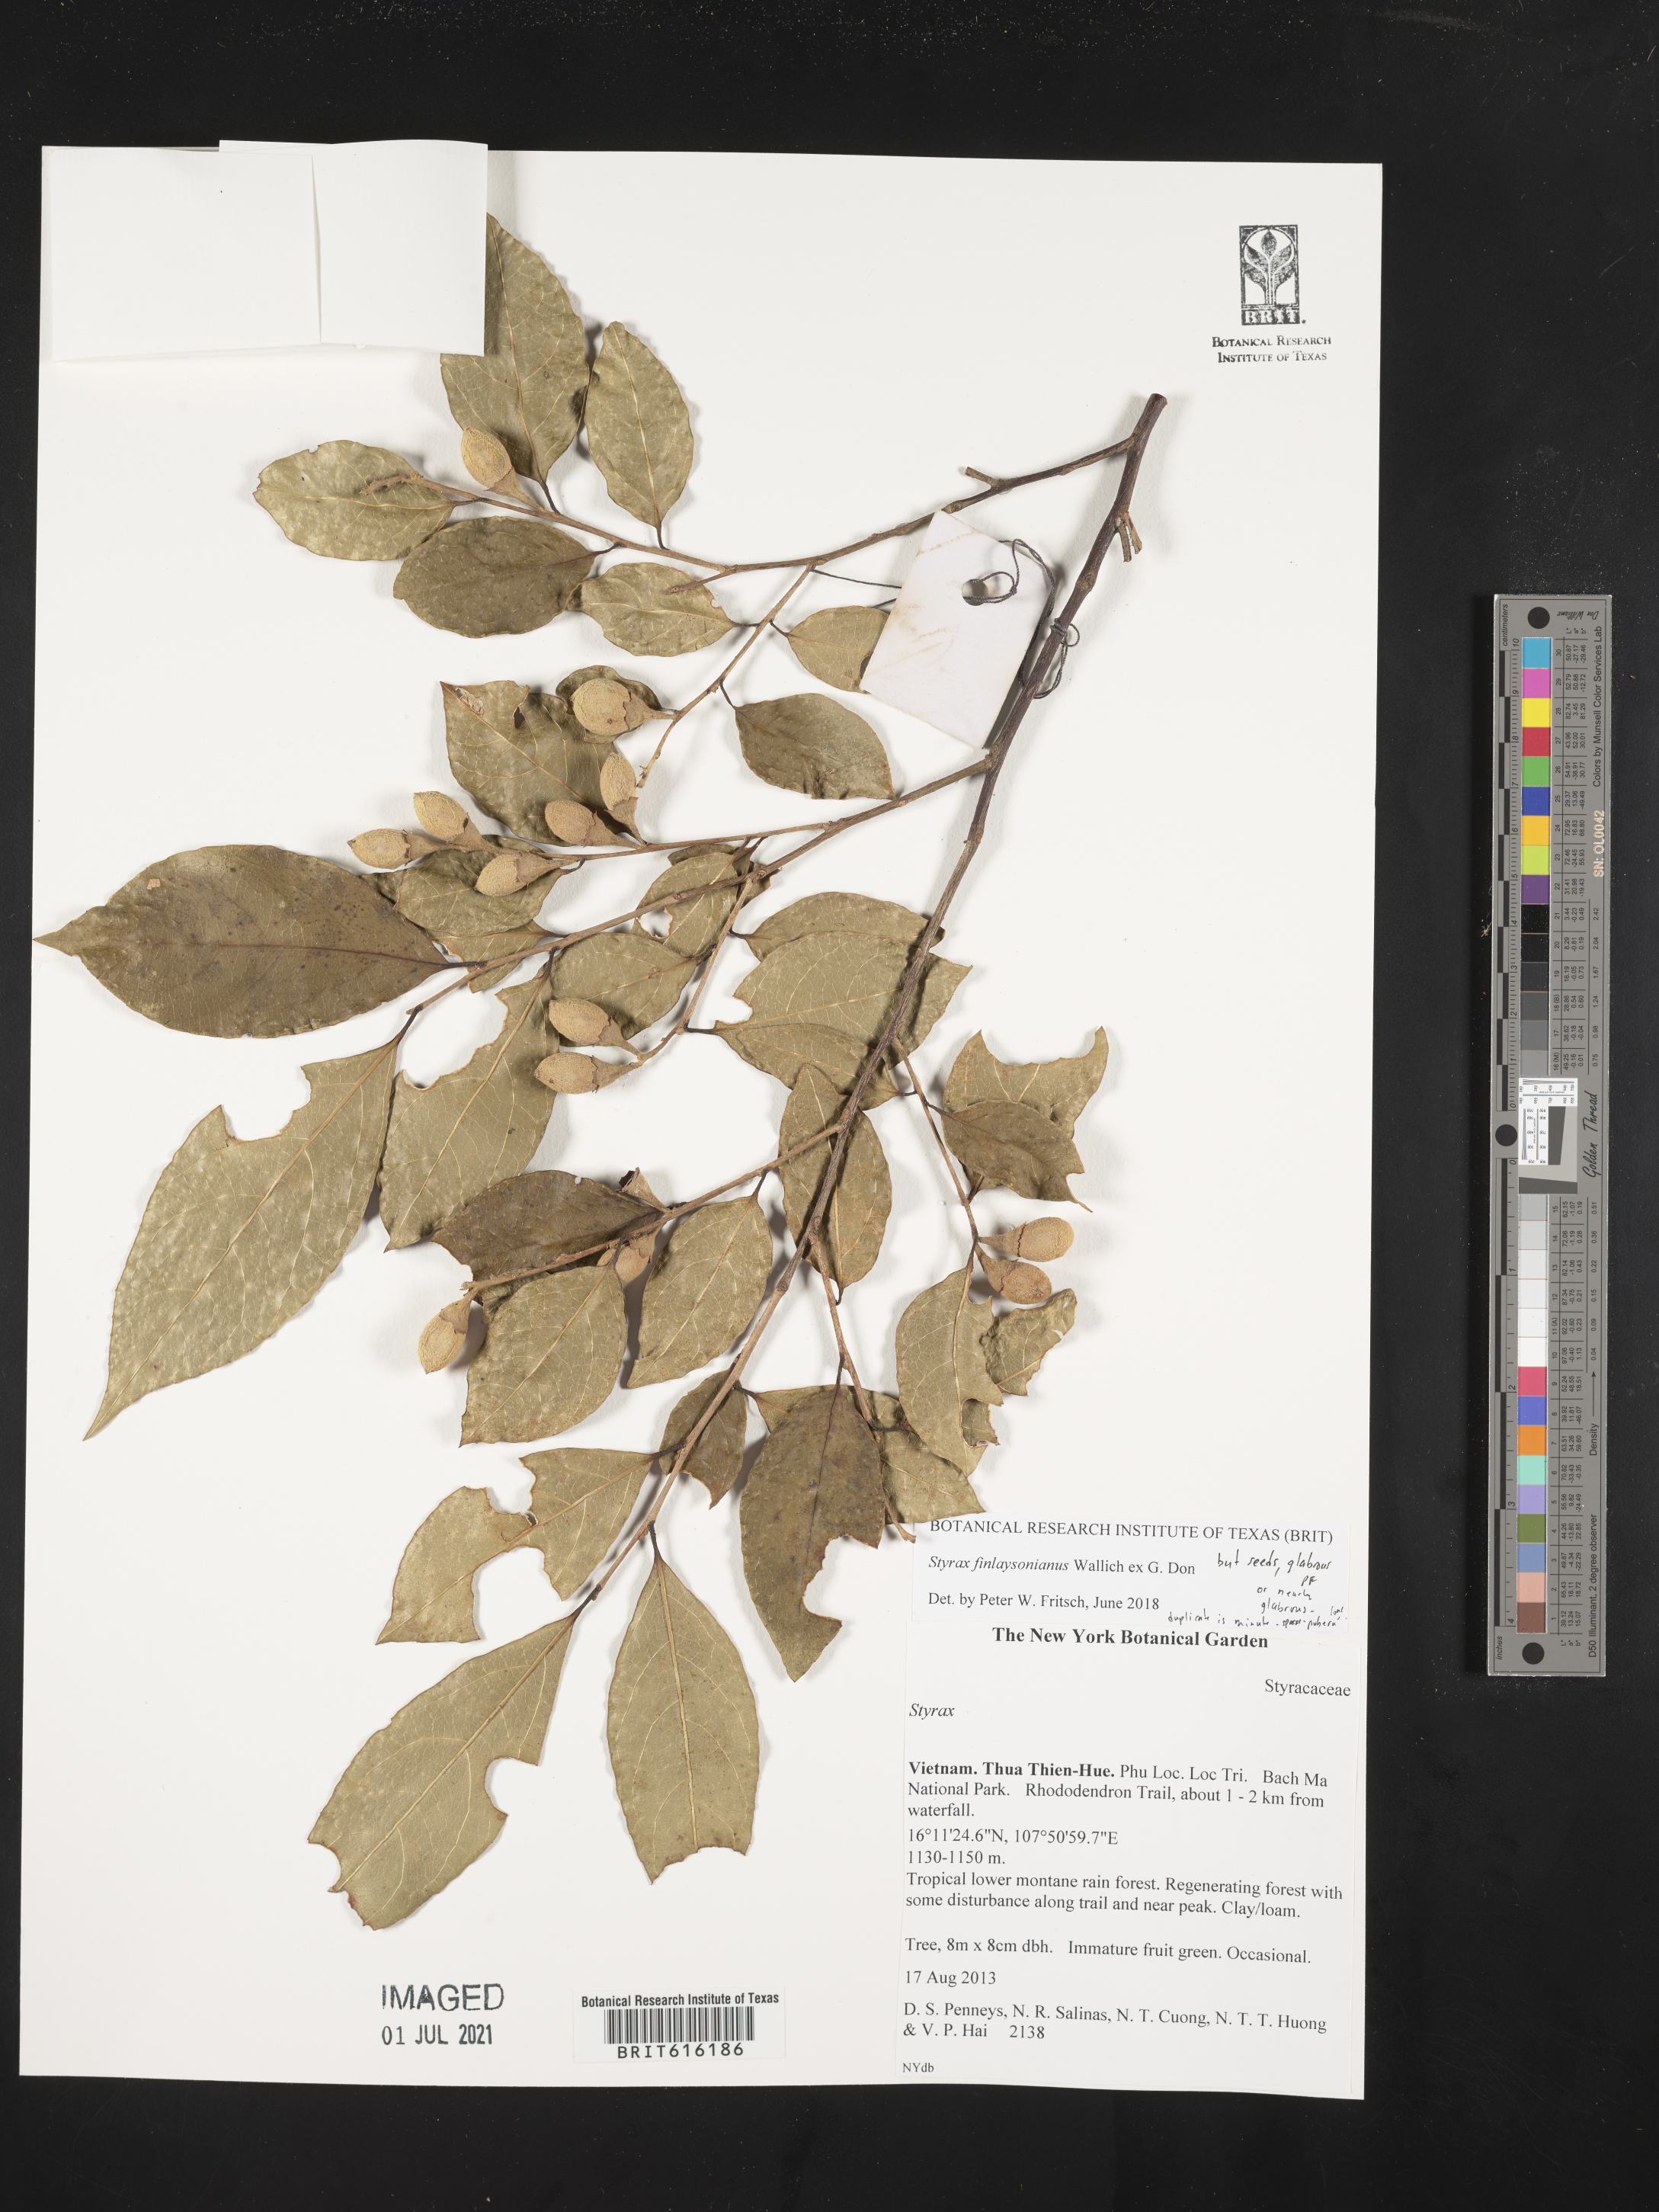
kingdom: Plantae
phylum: Tracheophyta
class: Magnoliopsida
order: Ericales
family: Styracaceae
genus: Styrax
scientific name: Styrax finlaysonianus
